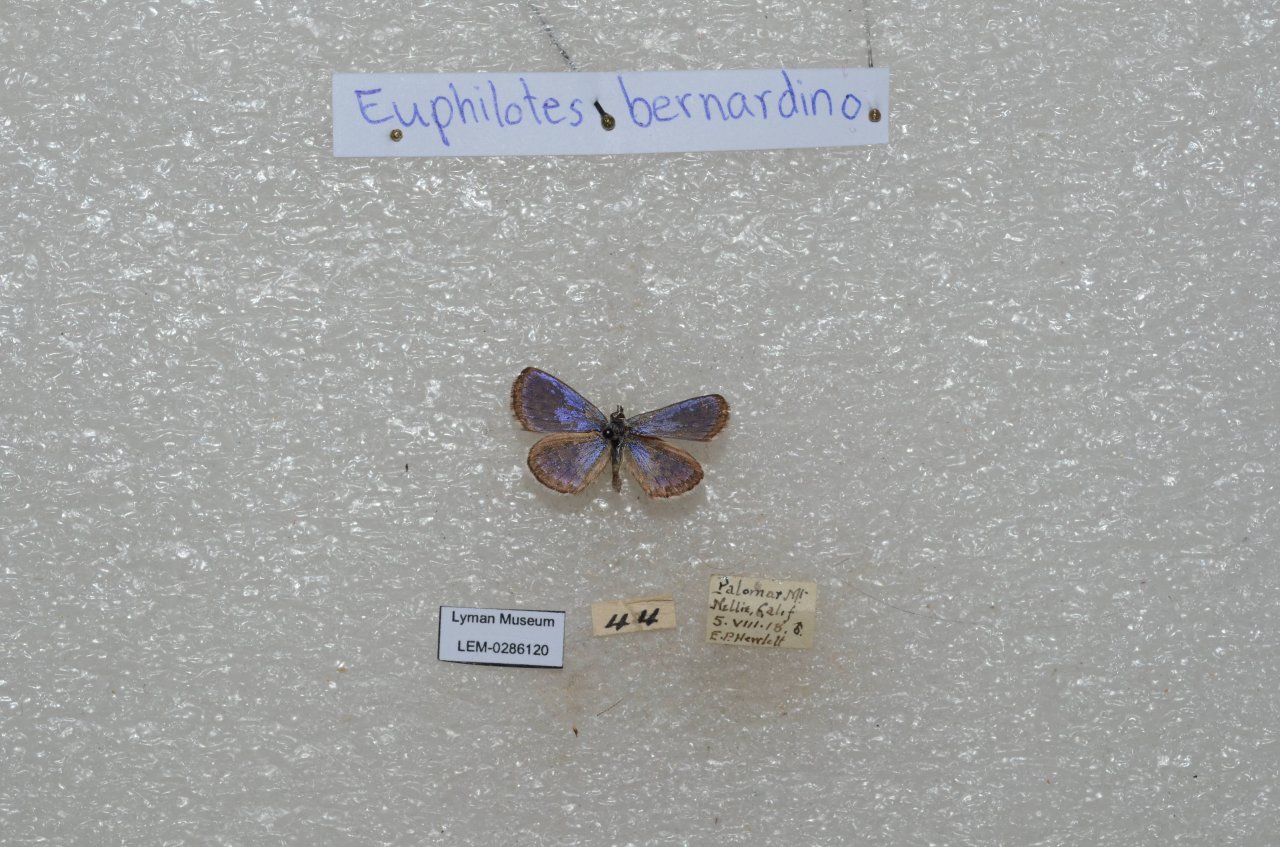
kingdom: Animalia
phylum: Arthropoda
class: Insecta
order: Lepidoptera
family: Lycaenidae
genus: Euphilotes
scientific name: Euphilotes battoides
